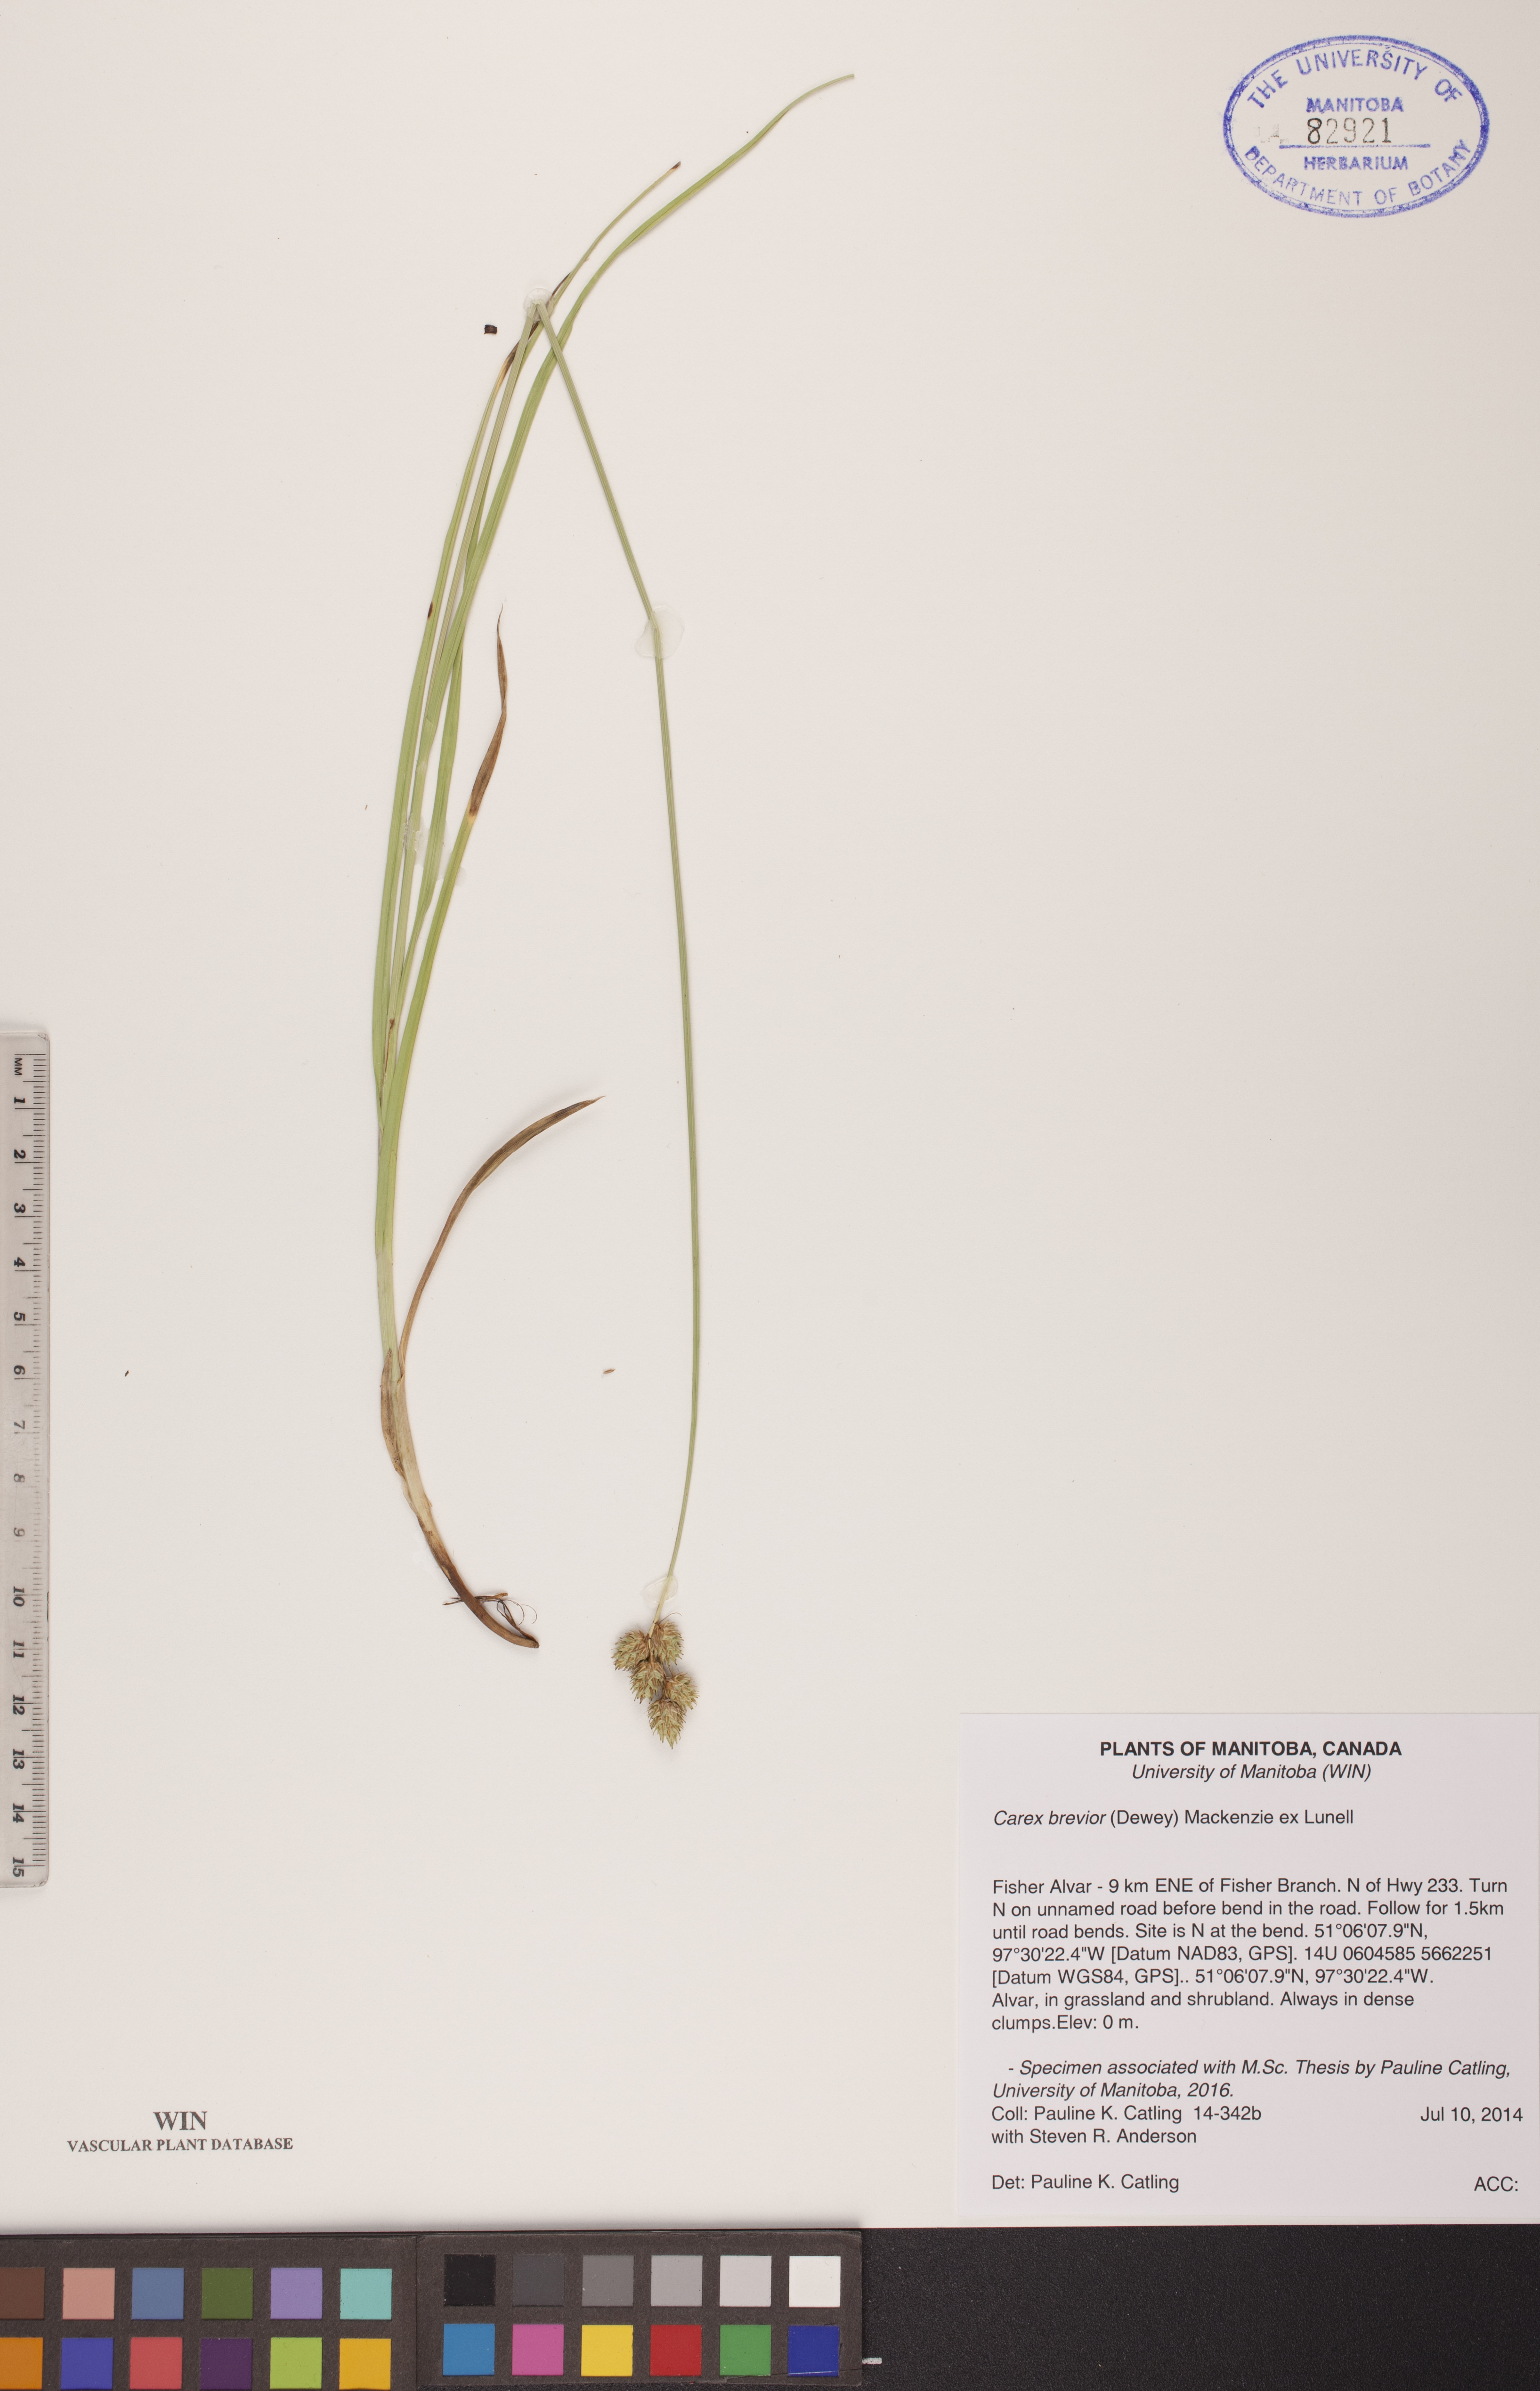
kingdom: Plantae
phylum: Tracheophyta
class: Liliopsida
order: Poales
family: Cyperaceae
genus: Carex
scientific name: Carex brevior
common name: Brevior sedge
